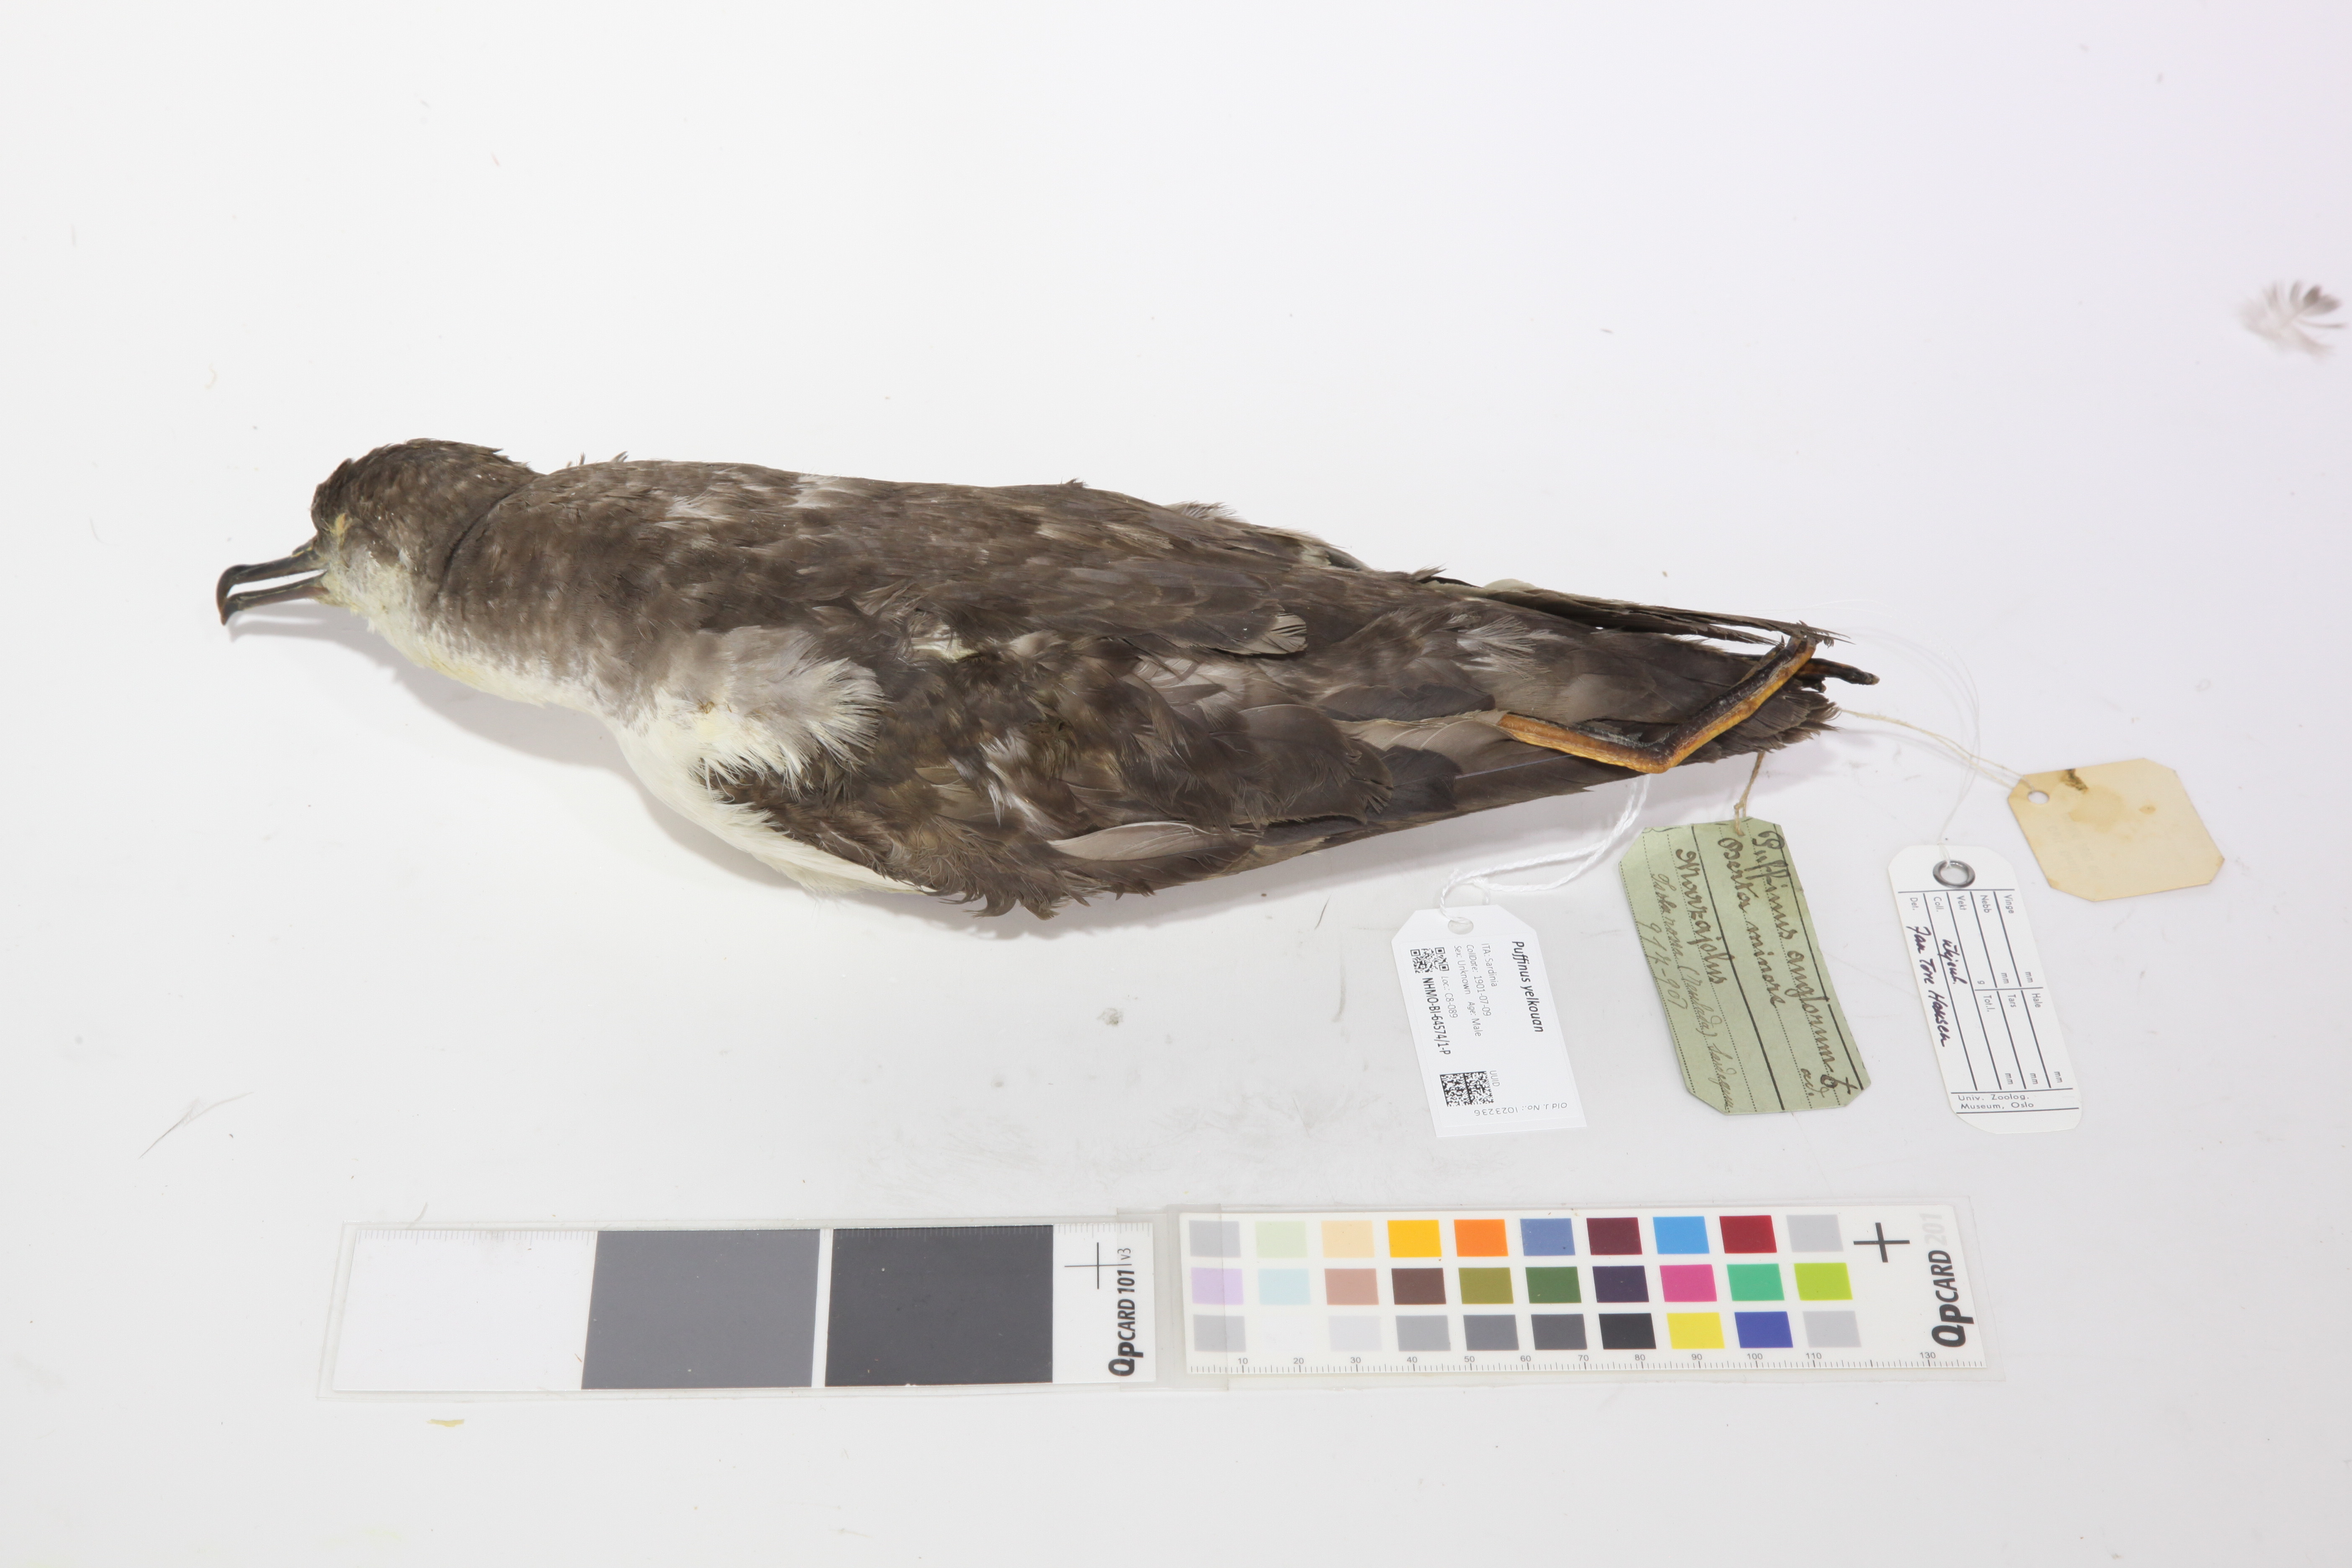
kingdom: Animalia
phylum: Chordata
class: Aves
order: Procellariiformes
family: Procellariidae
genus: Puffinus
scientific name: Puffinus yelkouan
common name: Yelkouan shearwater
